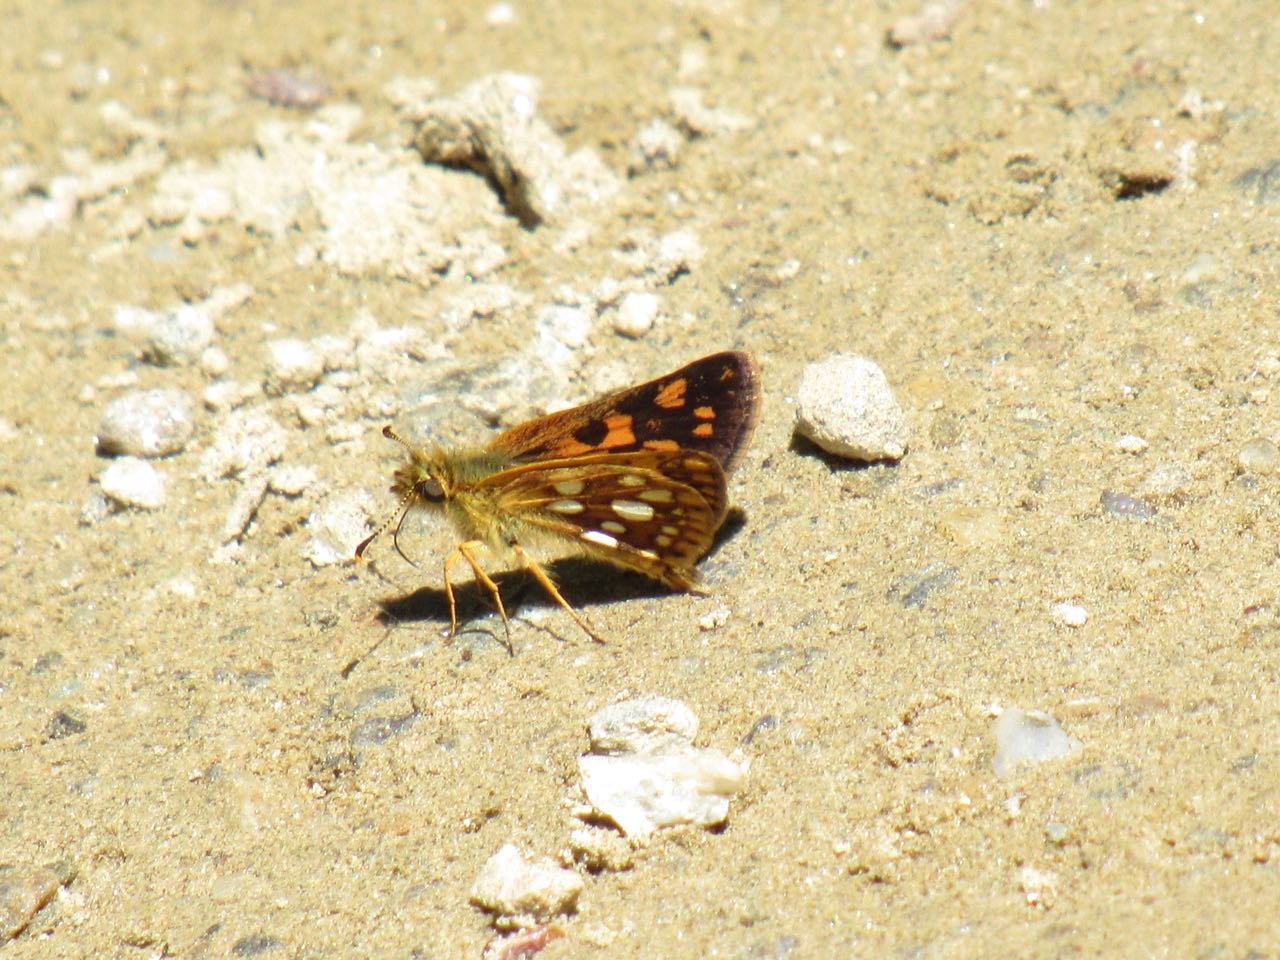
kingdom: Animalia
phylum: Arthropoda
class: Insecta
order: Lepidoptera
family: Hesperiidae
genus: Carterocephalus
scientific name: Carterocephalus palaemon
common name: Chequered Skipper
